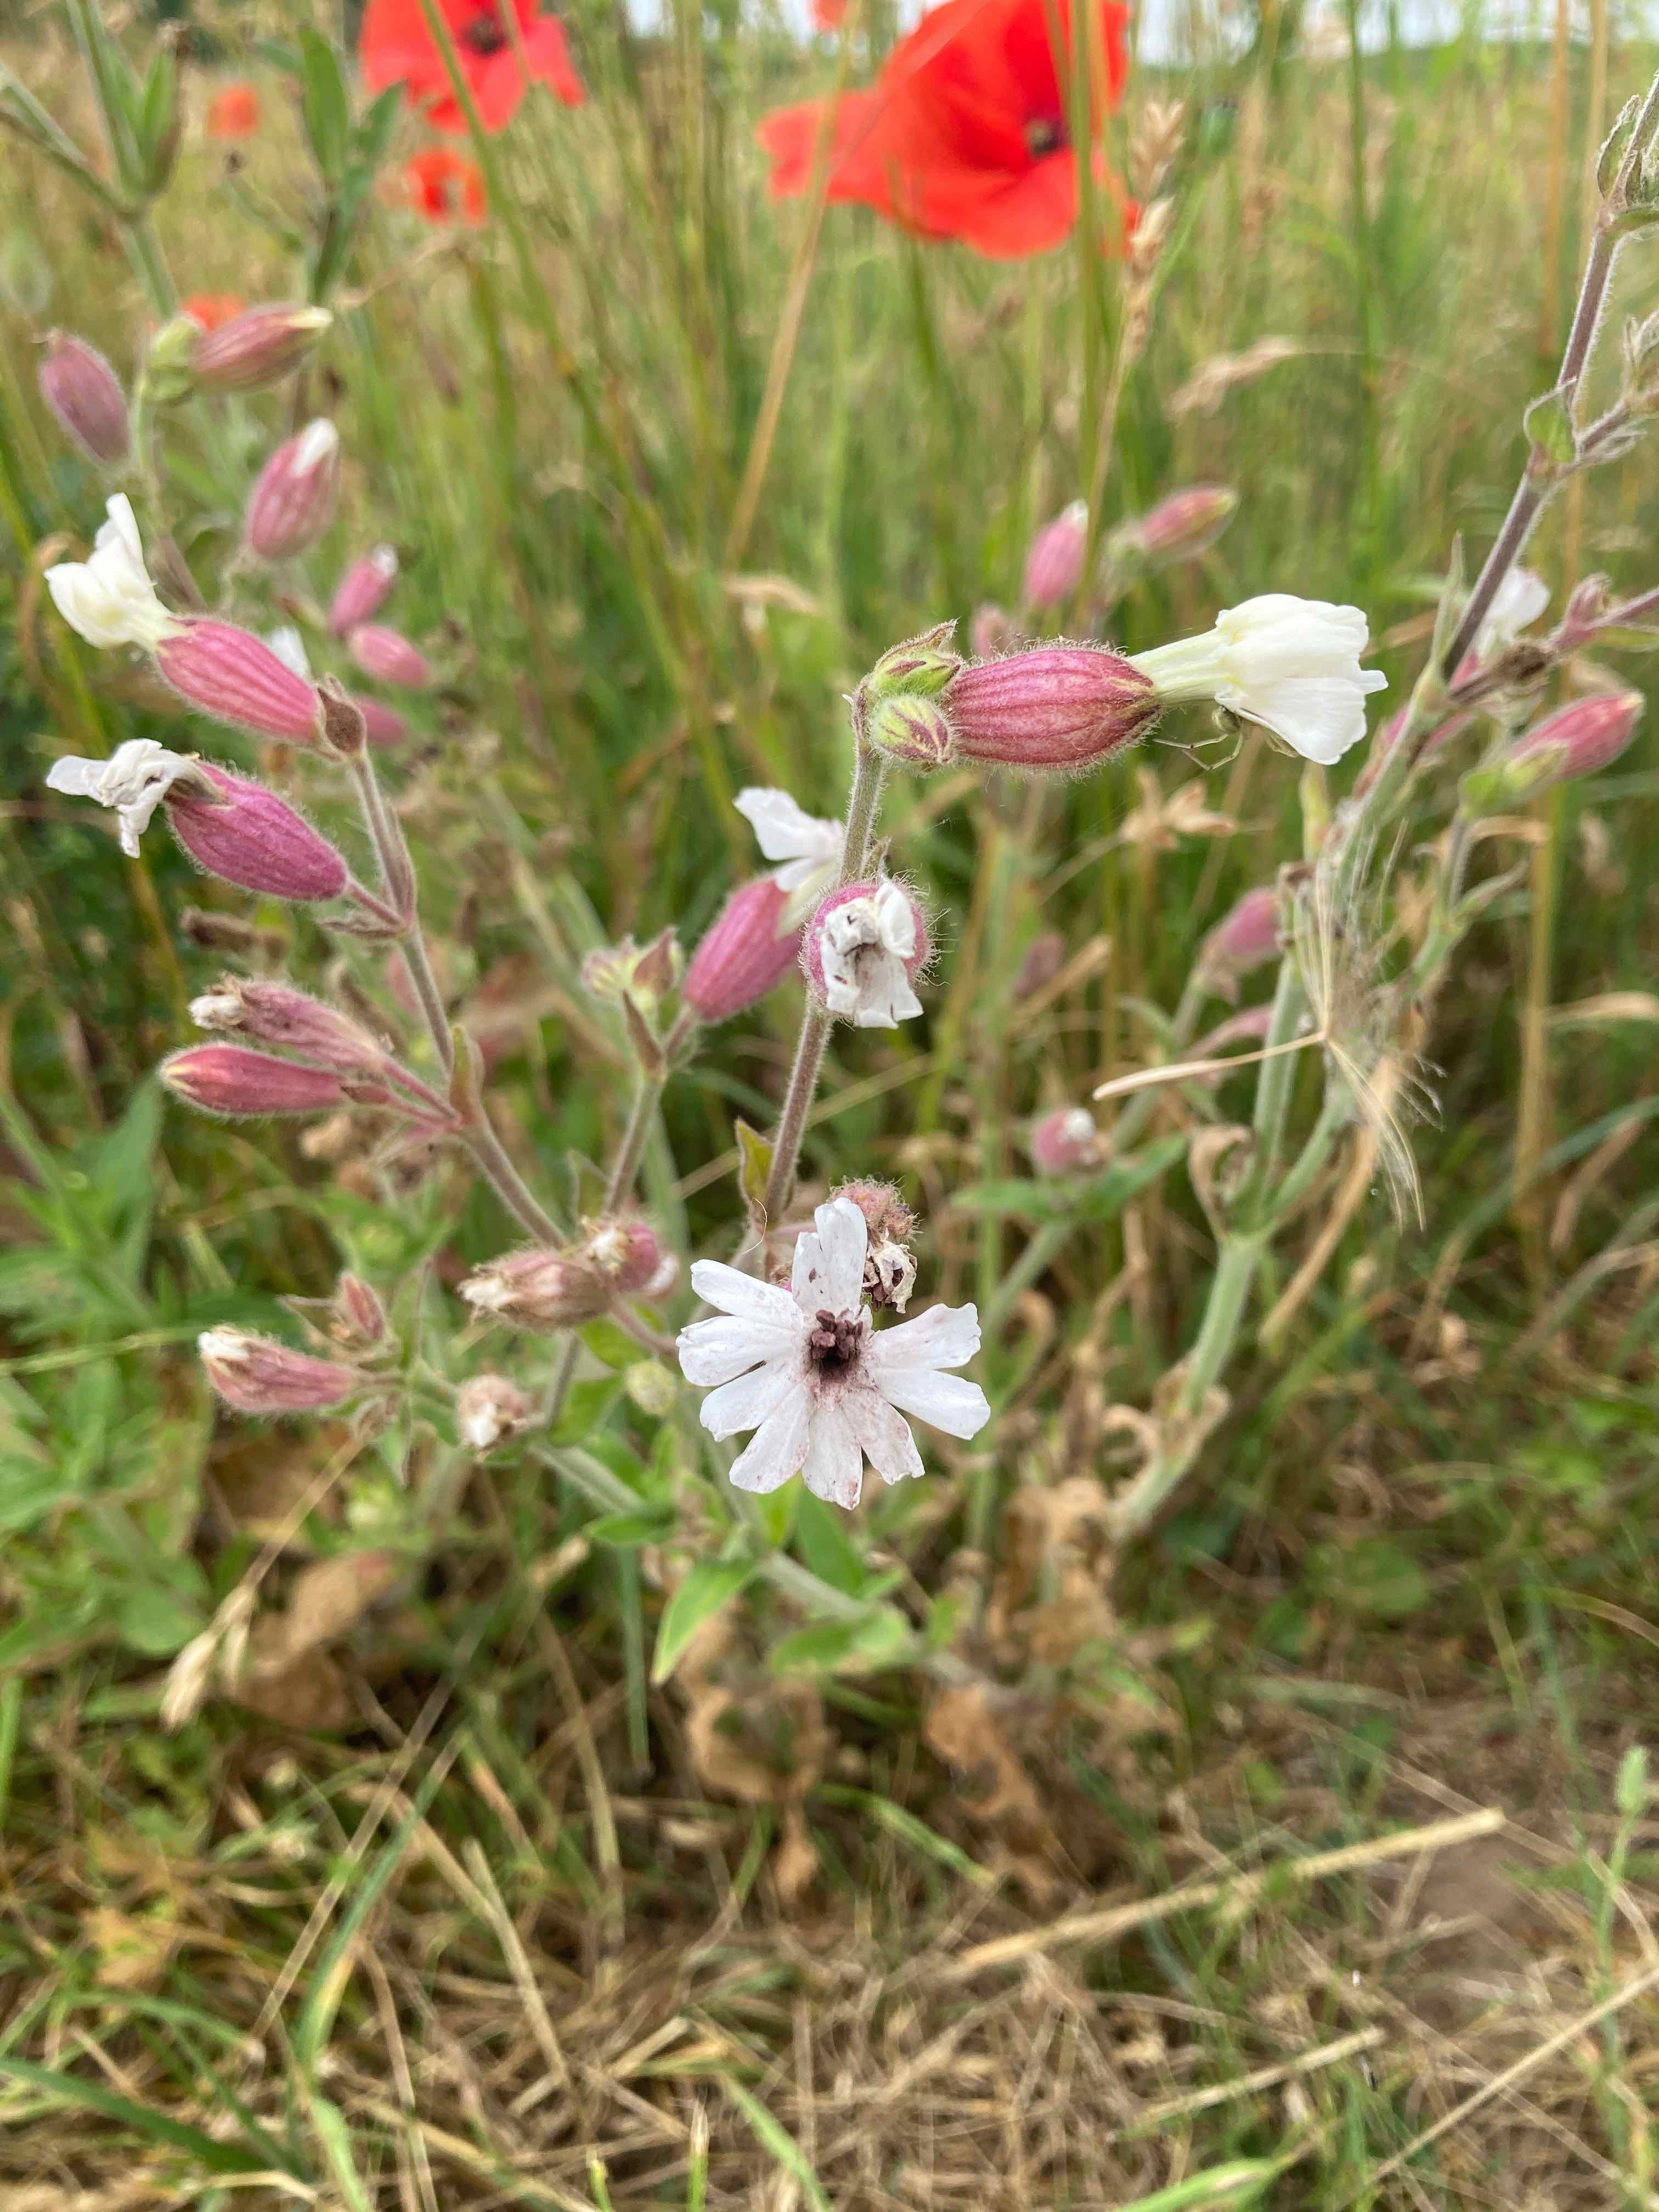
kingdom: Fungi
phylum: Basidiomycota
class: Microbotryomycetes
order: Microbotryales
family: Microbotryaceae
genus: Microbotryum
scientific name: Microbotryum lychnidis-dioicae
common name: Campion anther smut
